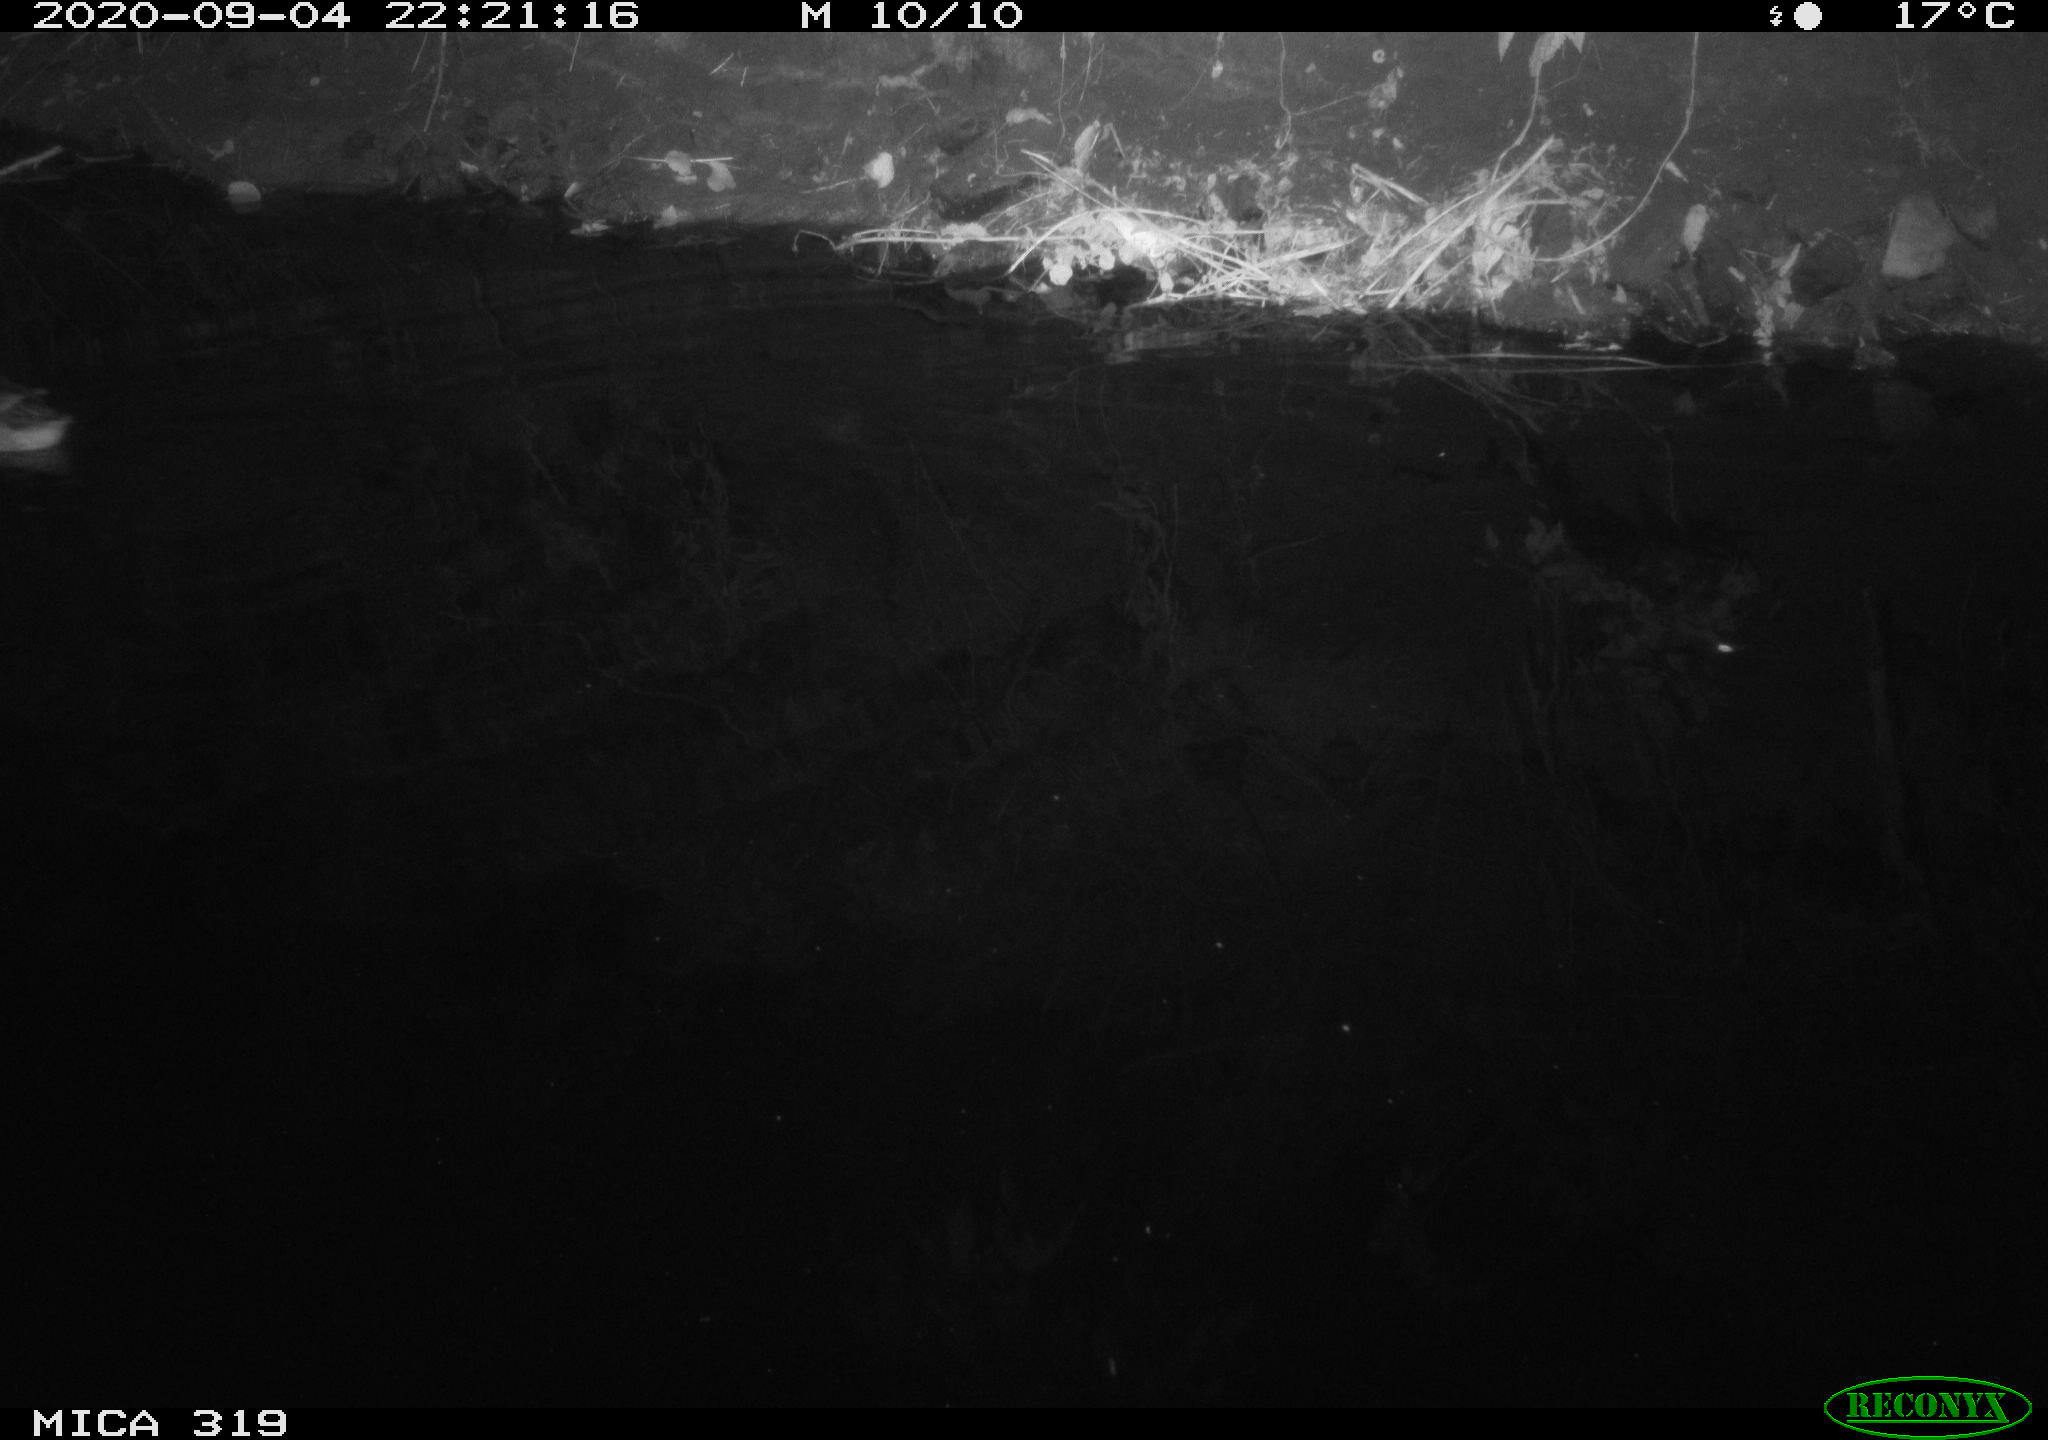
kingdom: Animalia
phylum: Chordata
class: Aves
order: Anseriformes
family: Anatidae
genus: Anas
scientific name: Anas platyrhynchos
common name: Mallard
